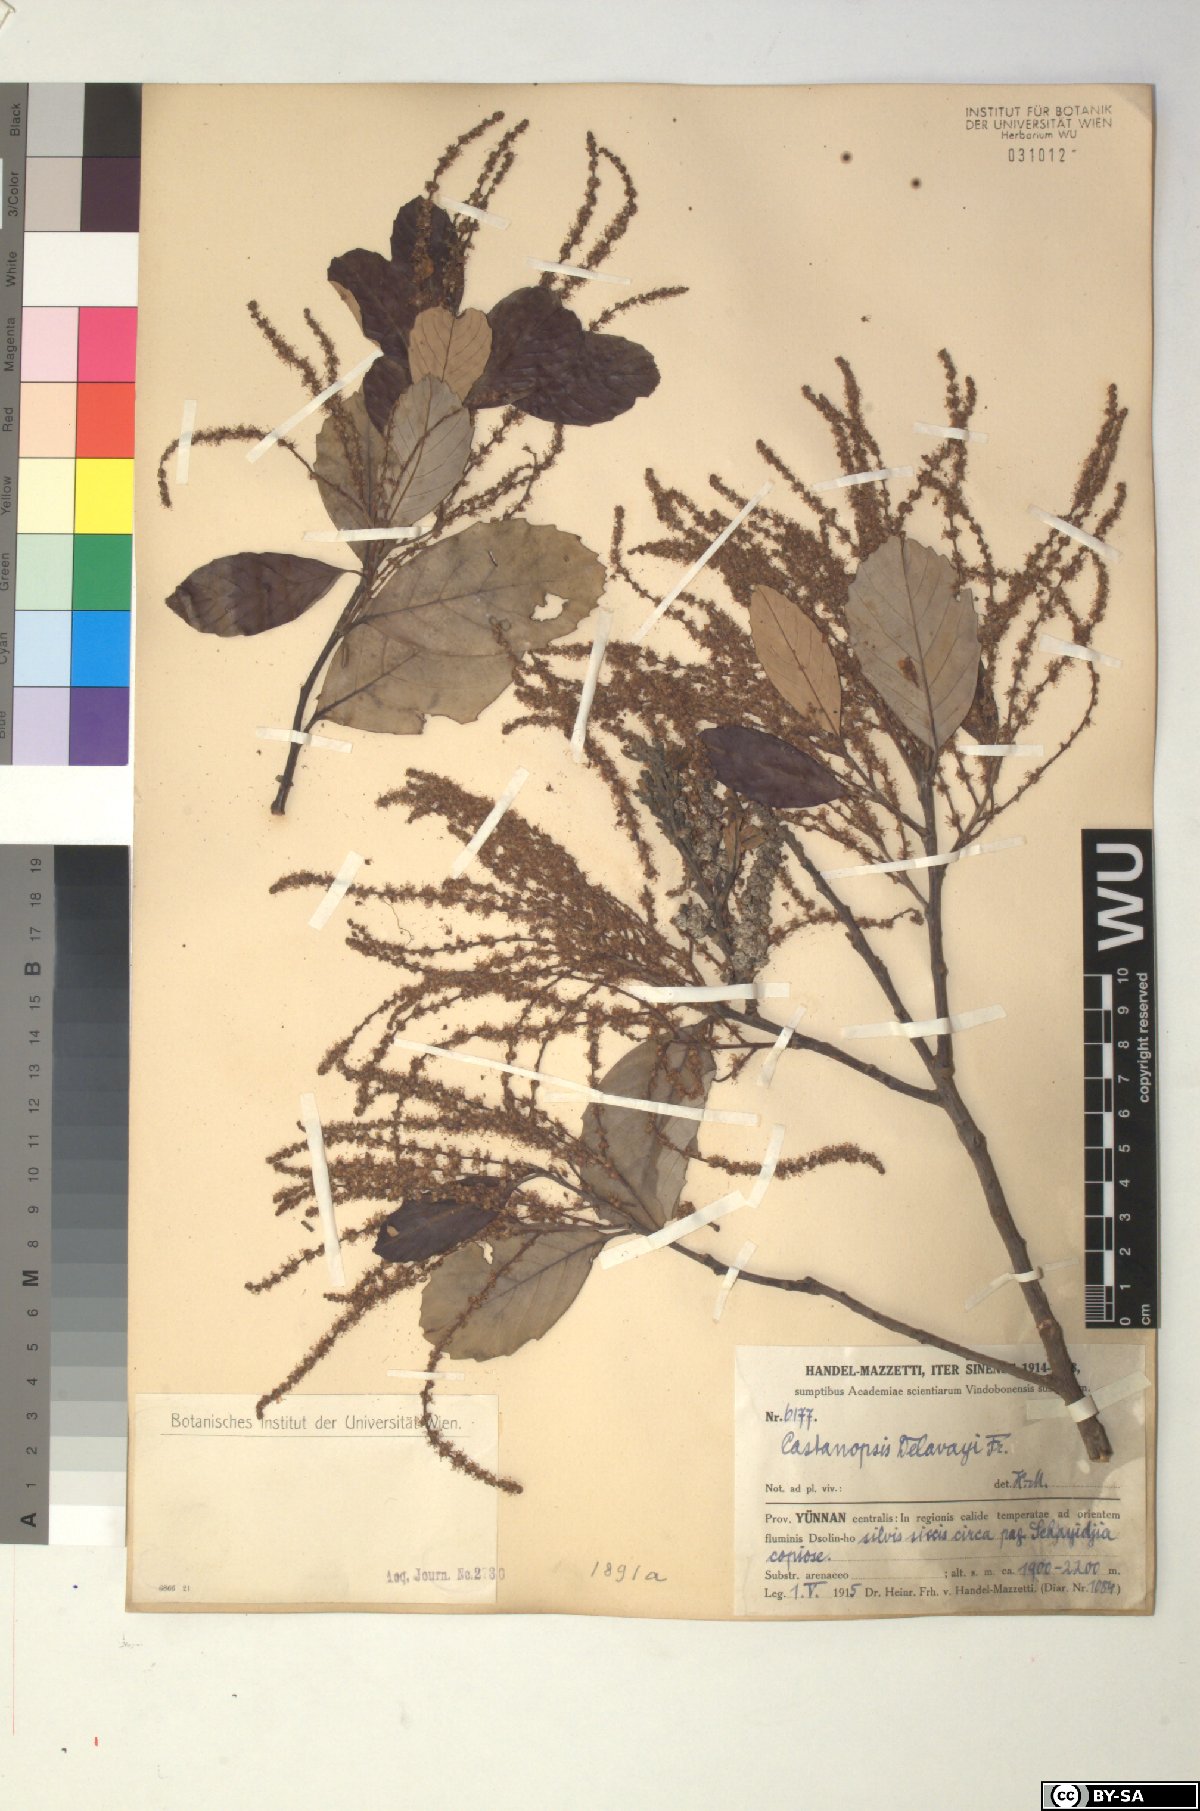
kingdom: Plantae
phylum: Tracheophyta
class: Magnoliopsida
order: Fagales
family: Fagaceae
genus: Castanopsis
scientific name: Castanopsis delavayi
